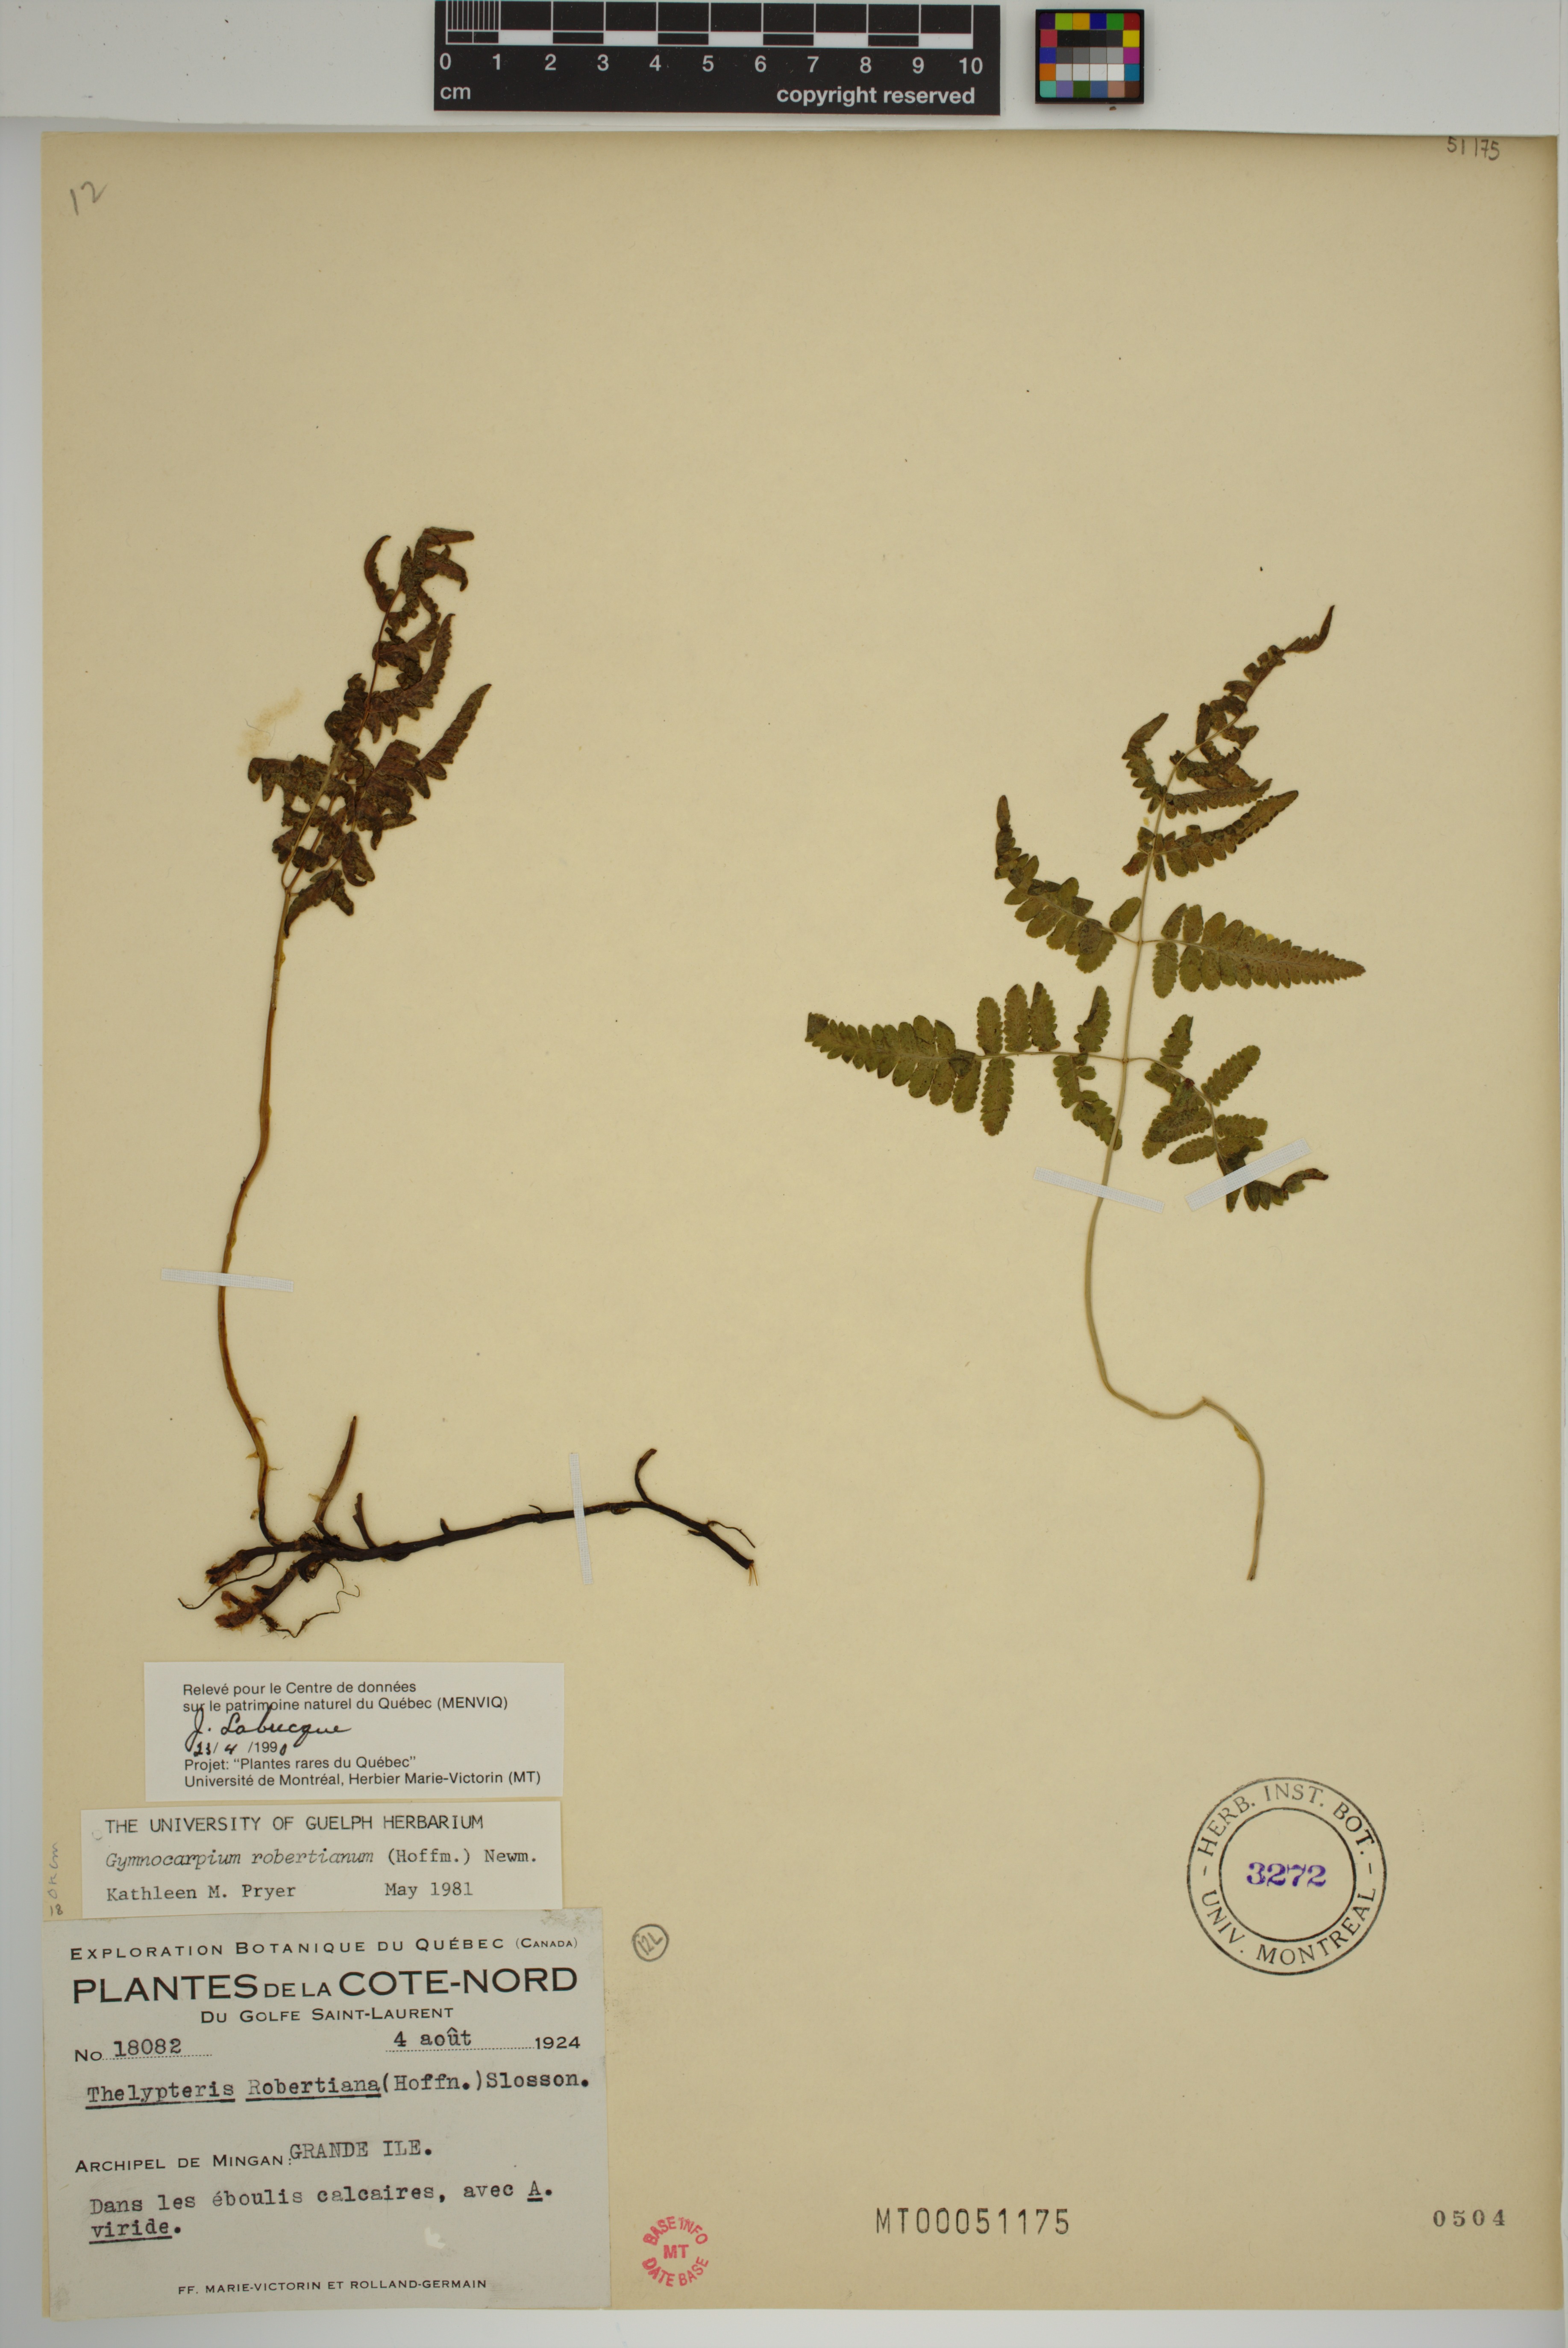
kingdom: Plantae
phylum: Tracheophyta
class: Polypodiopsida
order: Polypodiales
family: Cystopteridaceae
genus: Gymnocarpium
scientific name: Gymnocarpium robertianum
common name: Limestone fern
